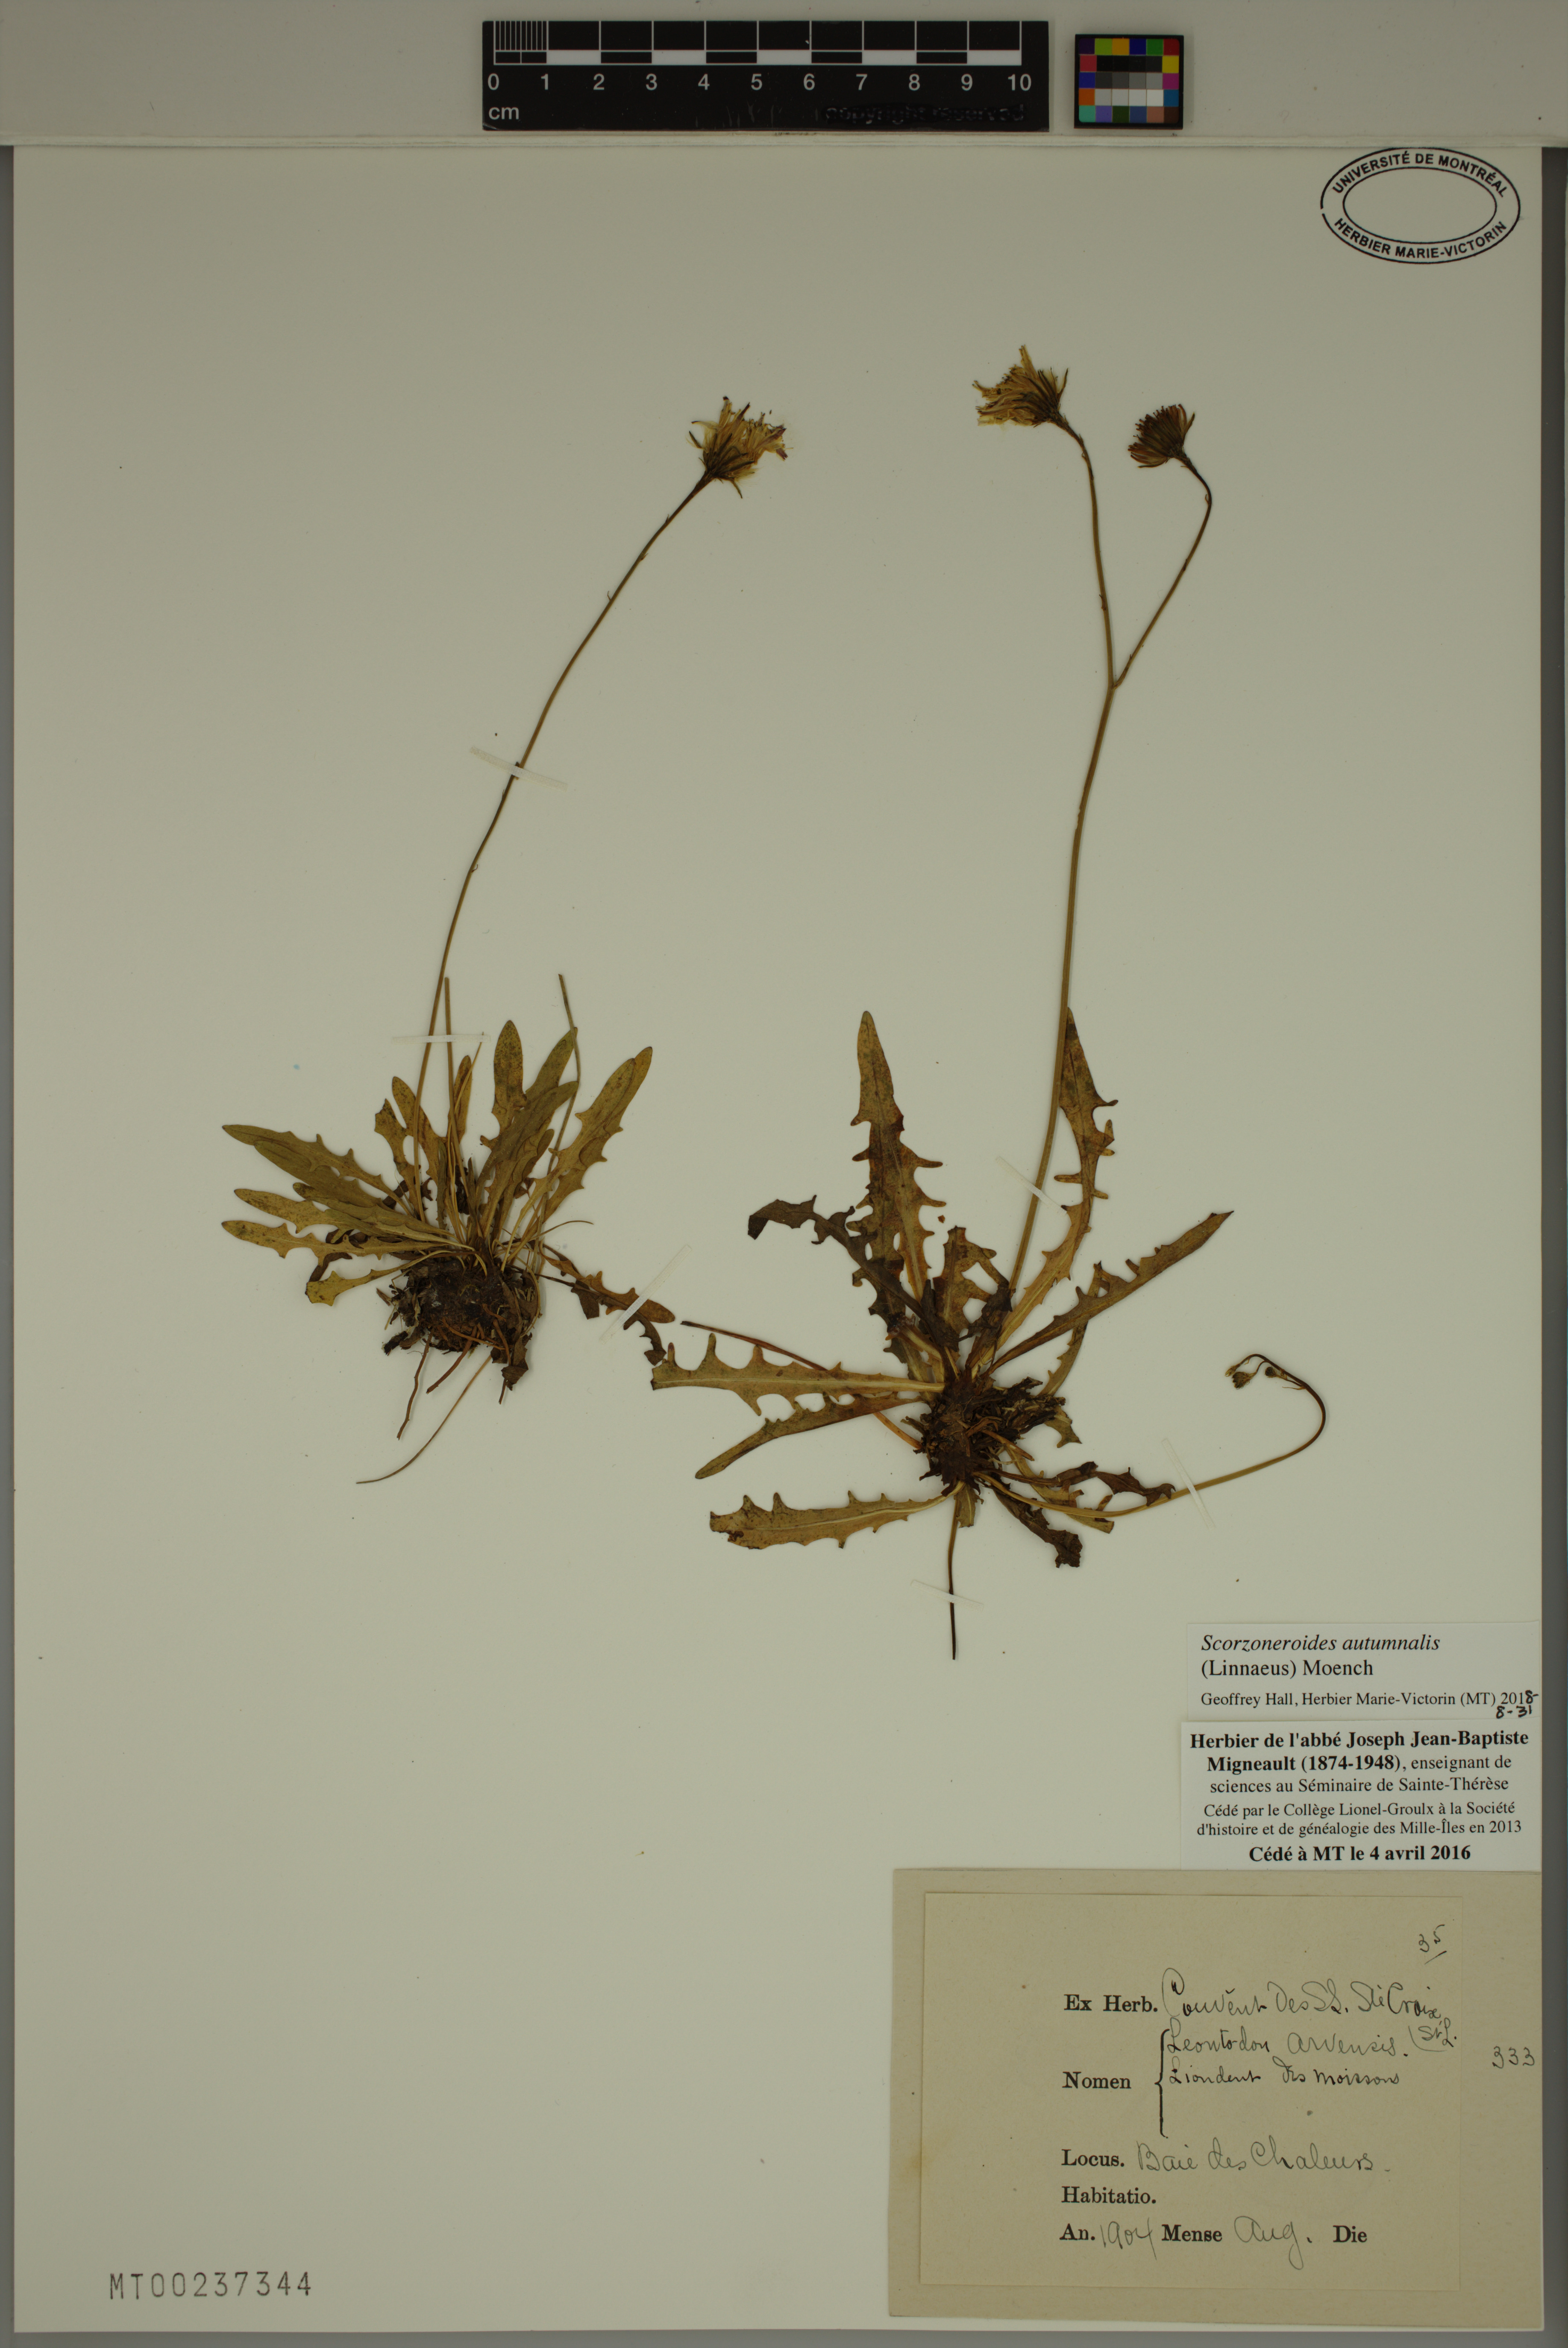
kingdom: Plantae
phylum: Tracheophyta
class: Magnoliopsida
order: Asterales
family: Asteraceae
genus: Scorzoneroides
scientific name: Scorzoneroides autumnalis
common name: Autumn hawkbit
